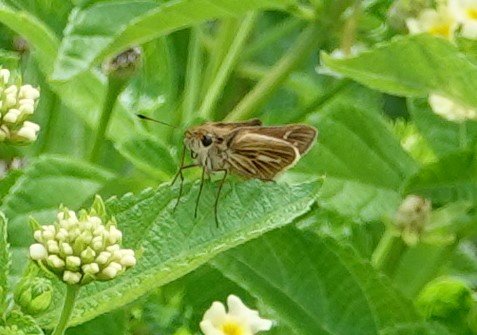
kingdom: Animalia
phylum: Arthropoda
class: Insecta
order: Lepidoptera
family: Hesperiidae
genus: Panoquina
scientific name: Panoquina panoquin
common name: Salt Marsh Skipper
